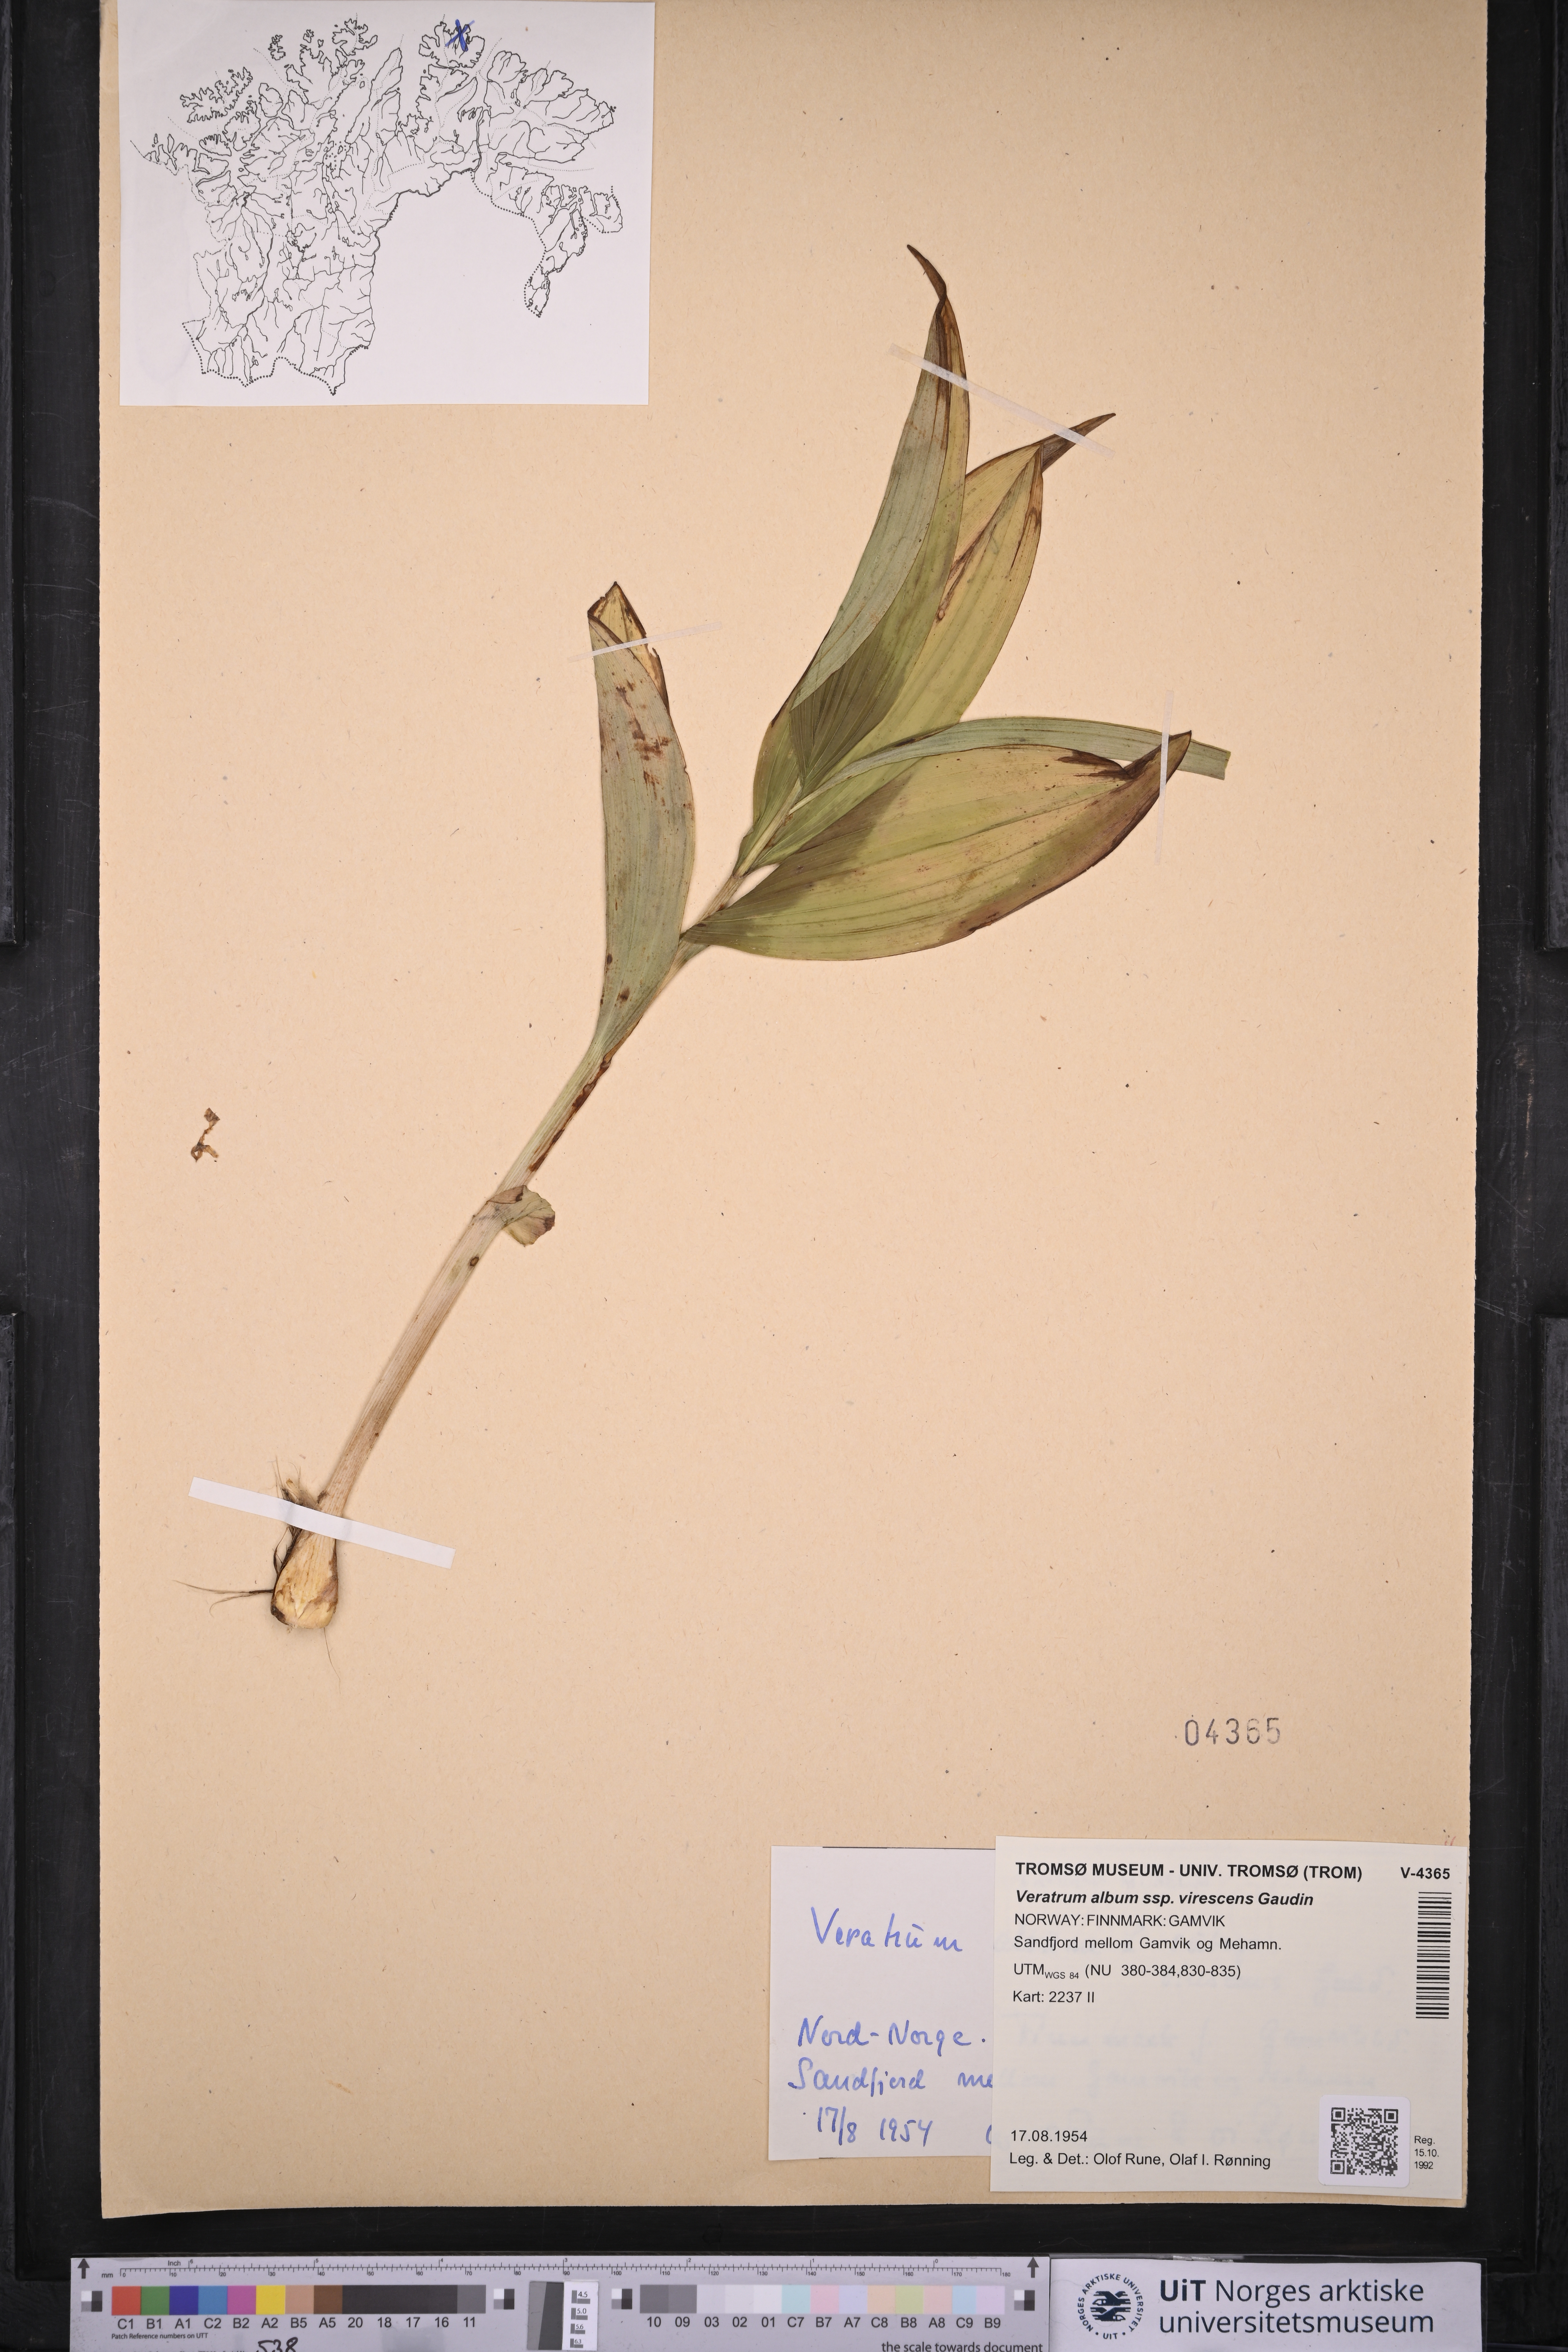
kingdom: Plantae
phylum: Tracheophyta
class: Liliopsida
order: Liliales
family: Melanthiaceae
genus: Veratrum
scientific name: Veratrum lobelianum
